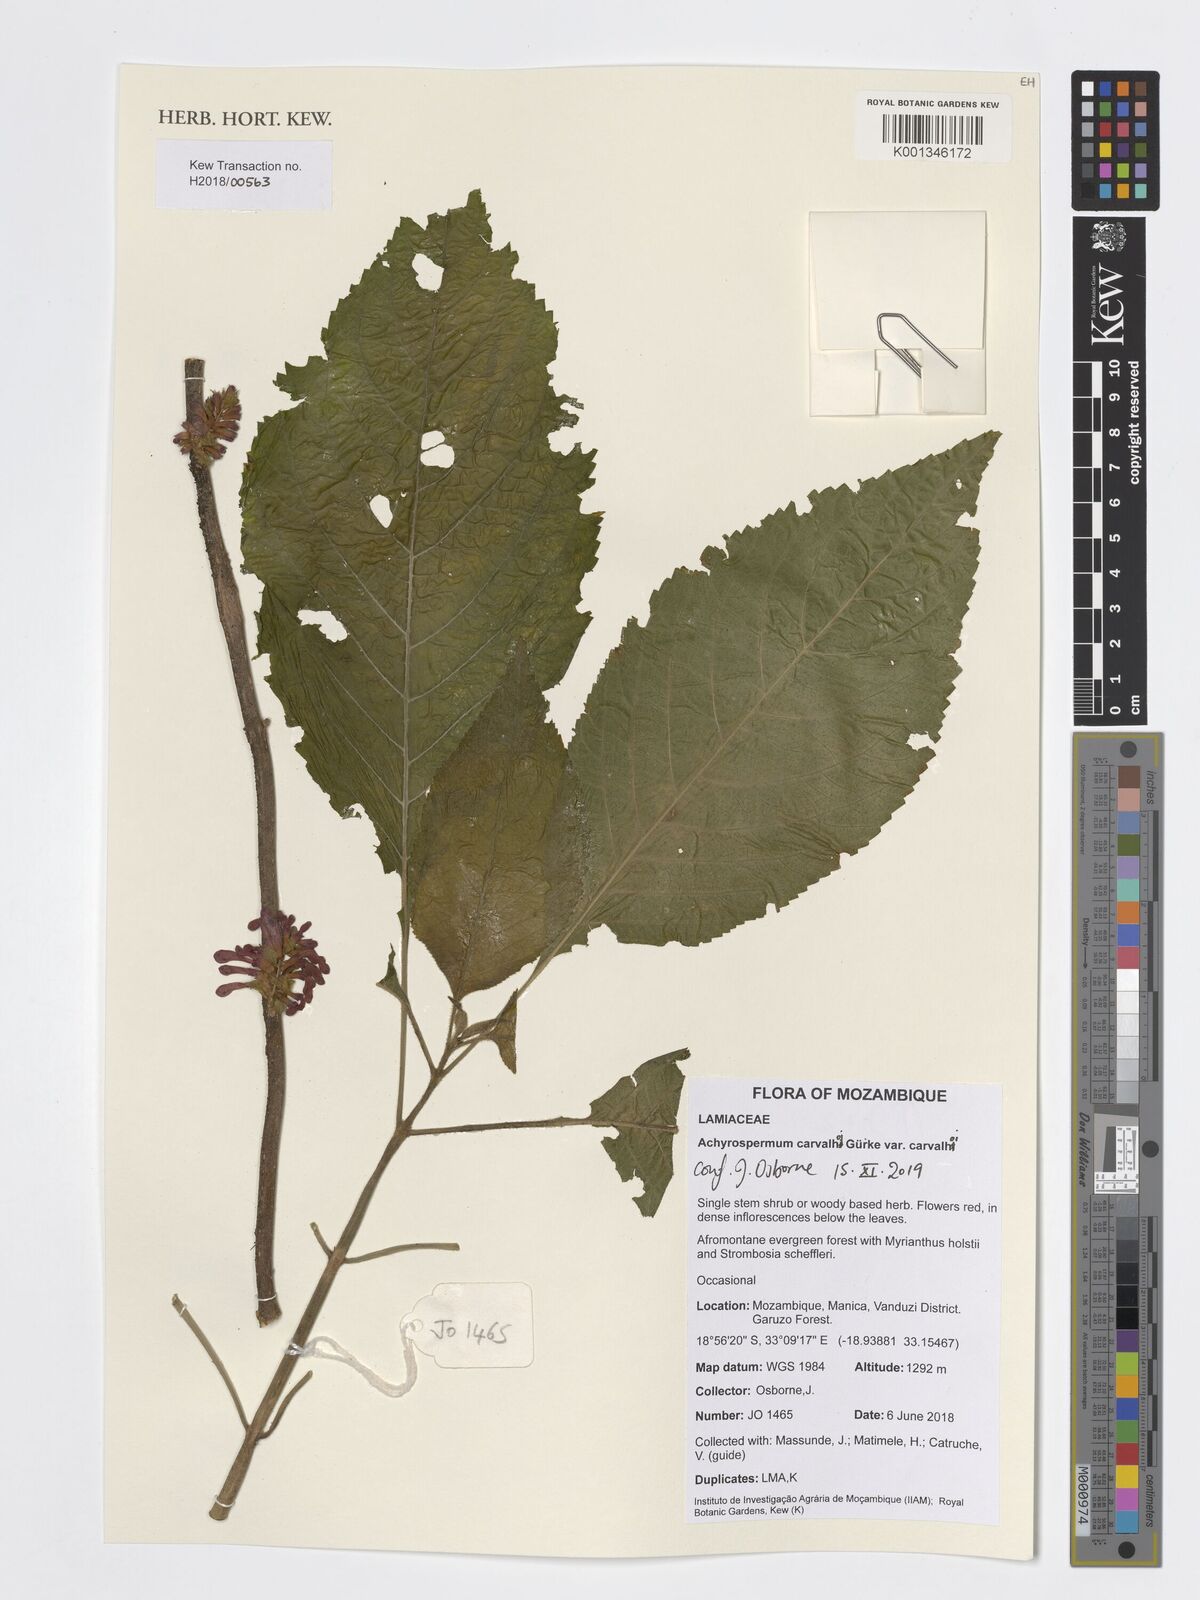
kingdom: Plantae
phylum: Tracheophyta
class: Magnoliopsida
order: Lamiales
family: Lamiaceae
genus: Achyrospermum
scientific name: Achyrospermum carvalhoi
